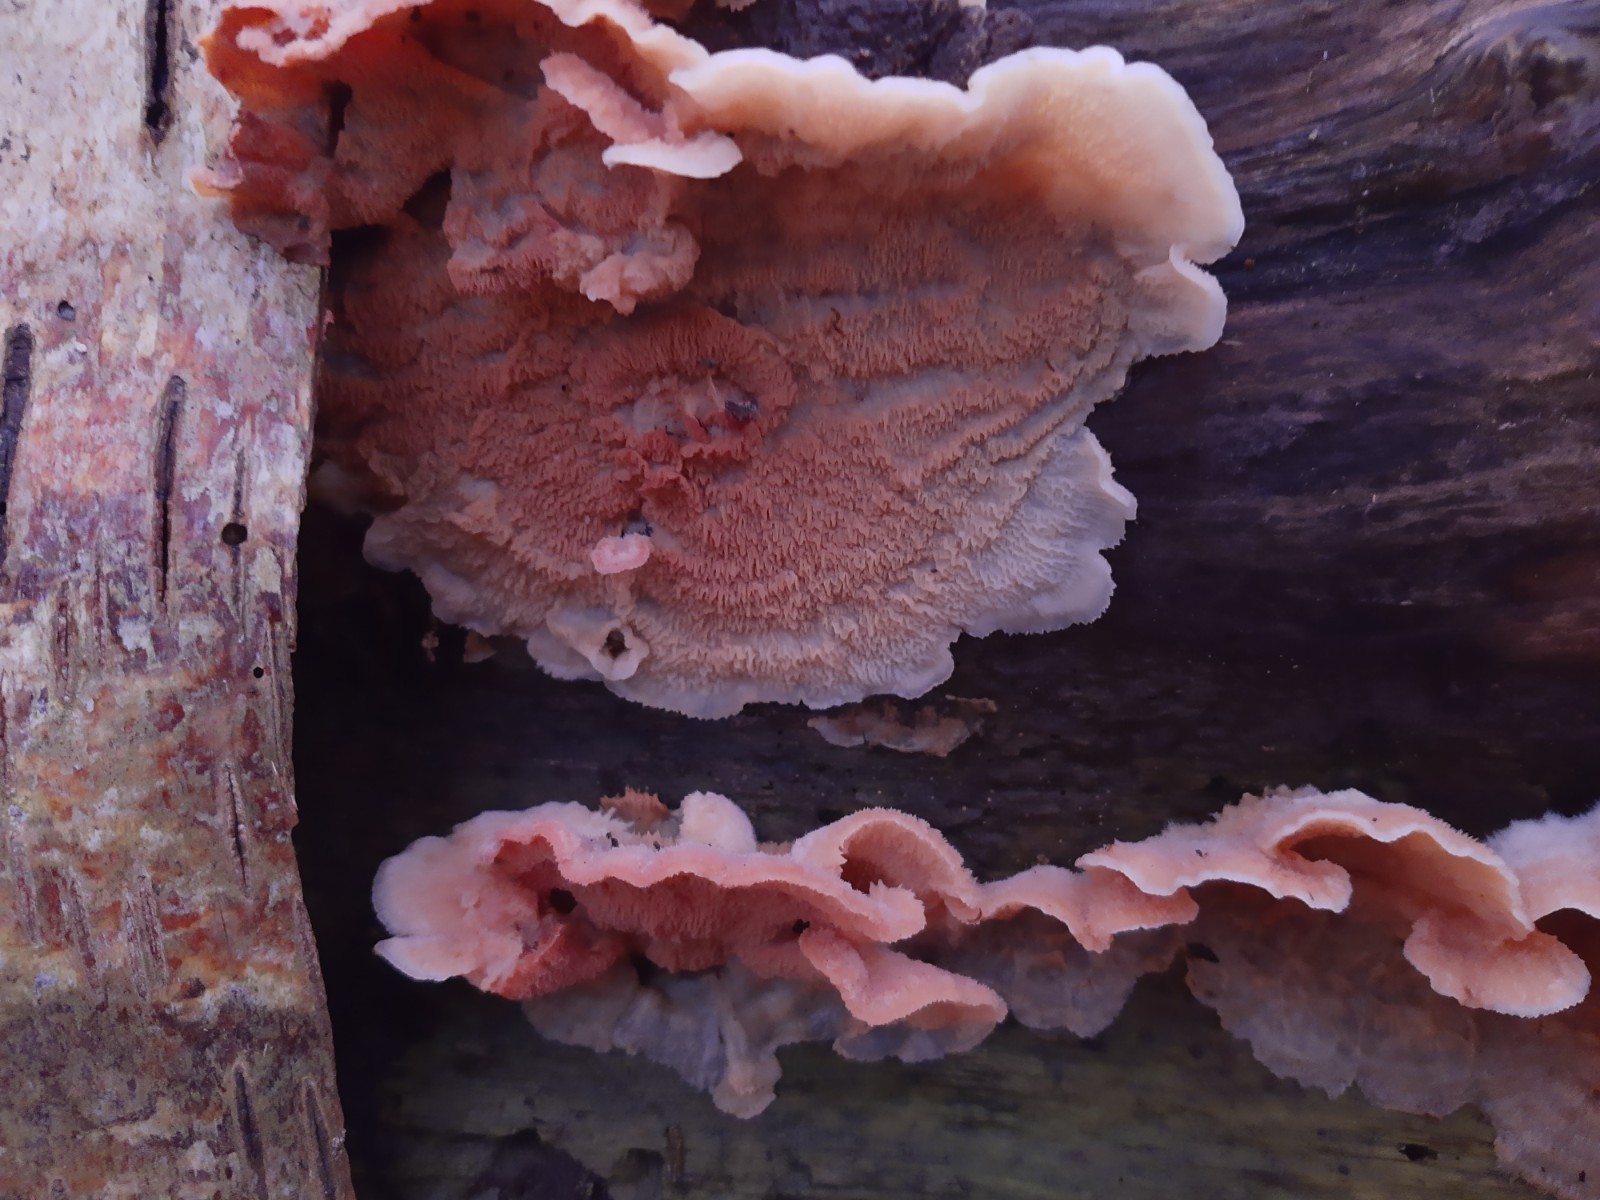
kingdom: Fungi
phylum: Basidiomycota
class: Agaricomycetes
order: Polyporales
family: Meruliaceae
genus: Phlebia
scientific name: Phlebia radiata
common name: stråle-åresvamp
